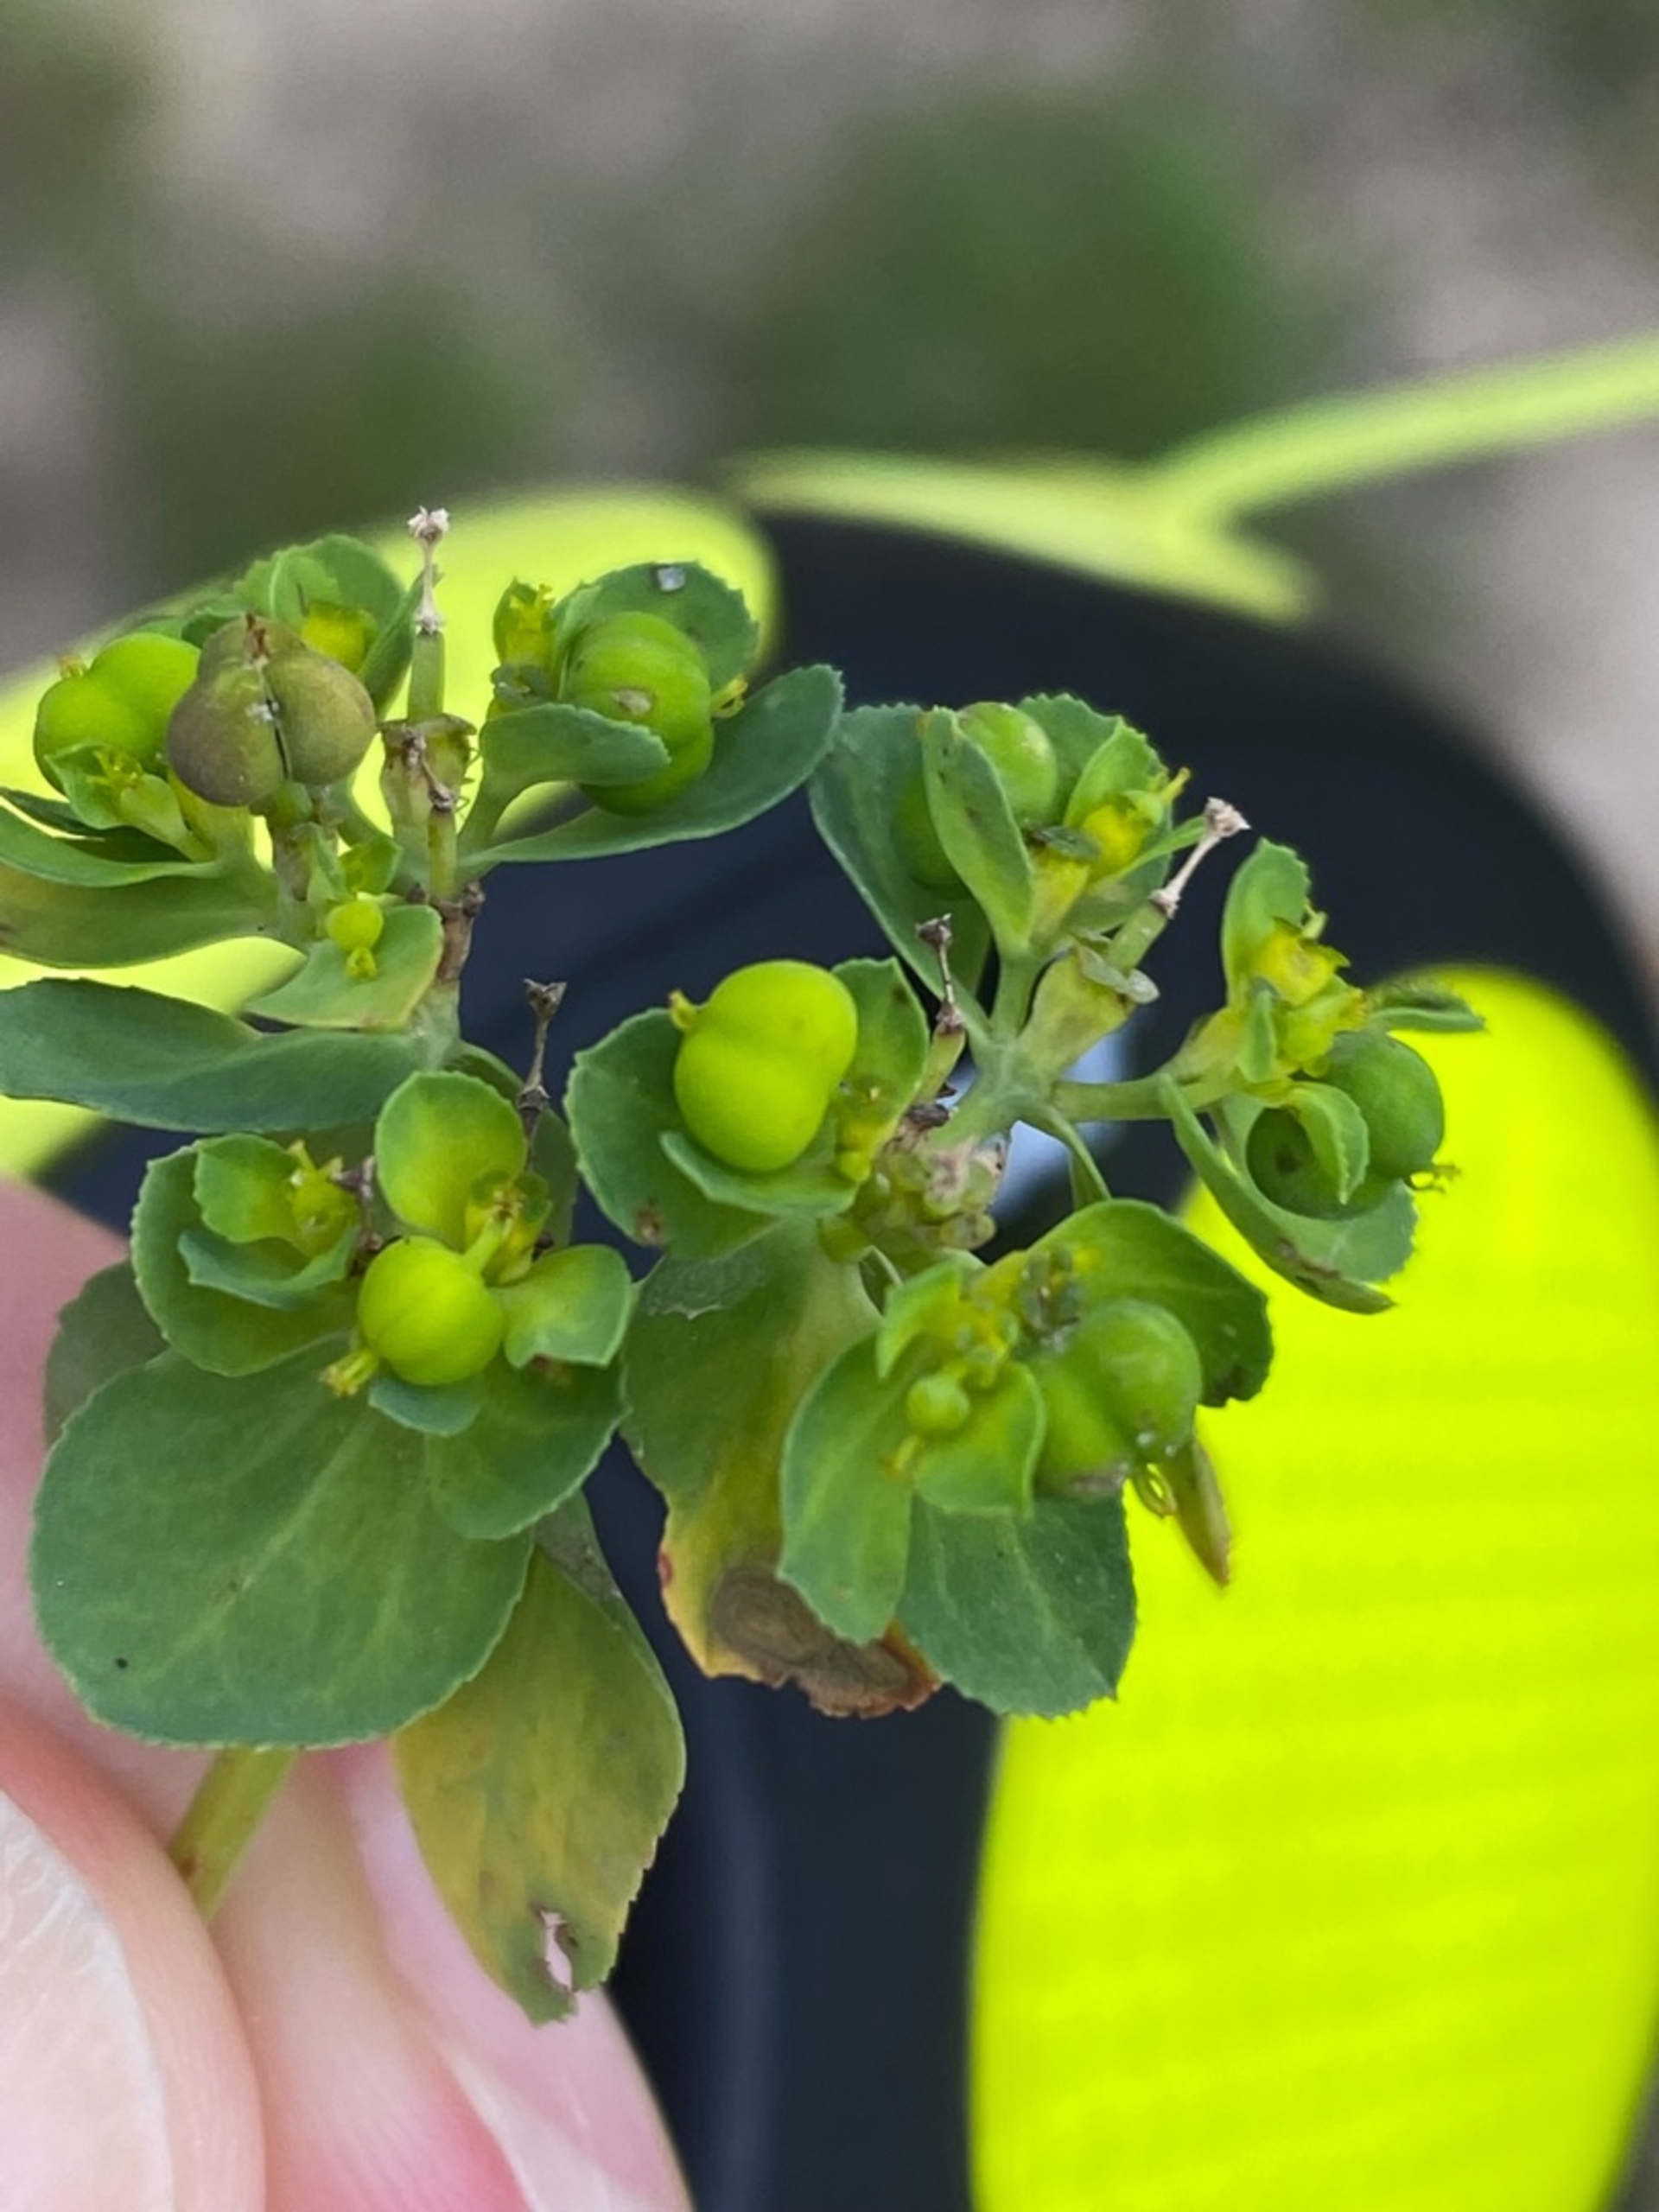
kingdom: Plantae
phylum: Tracheophyta
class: Magnoliopsida
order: Ranunculales
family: Papaveraceae
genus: Fumaria
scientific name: Fumaria officinalis
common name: Læge-jordrøg
